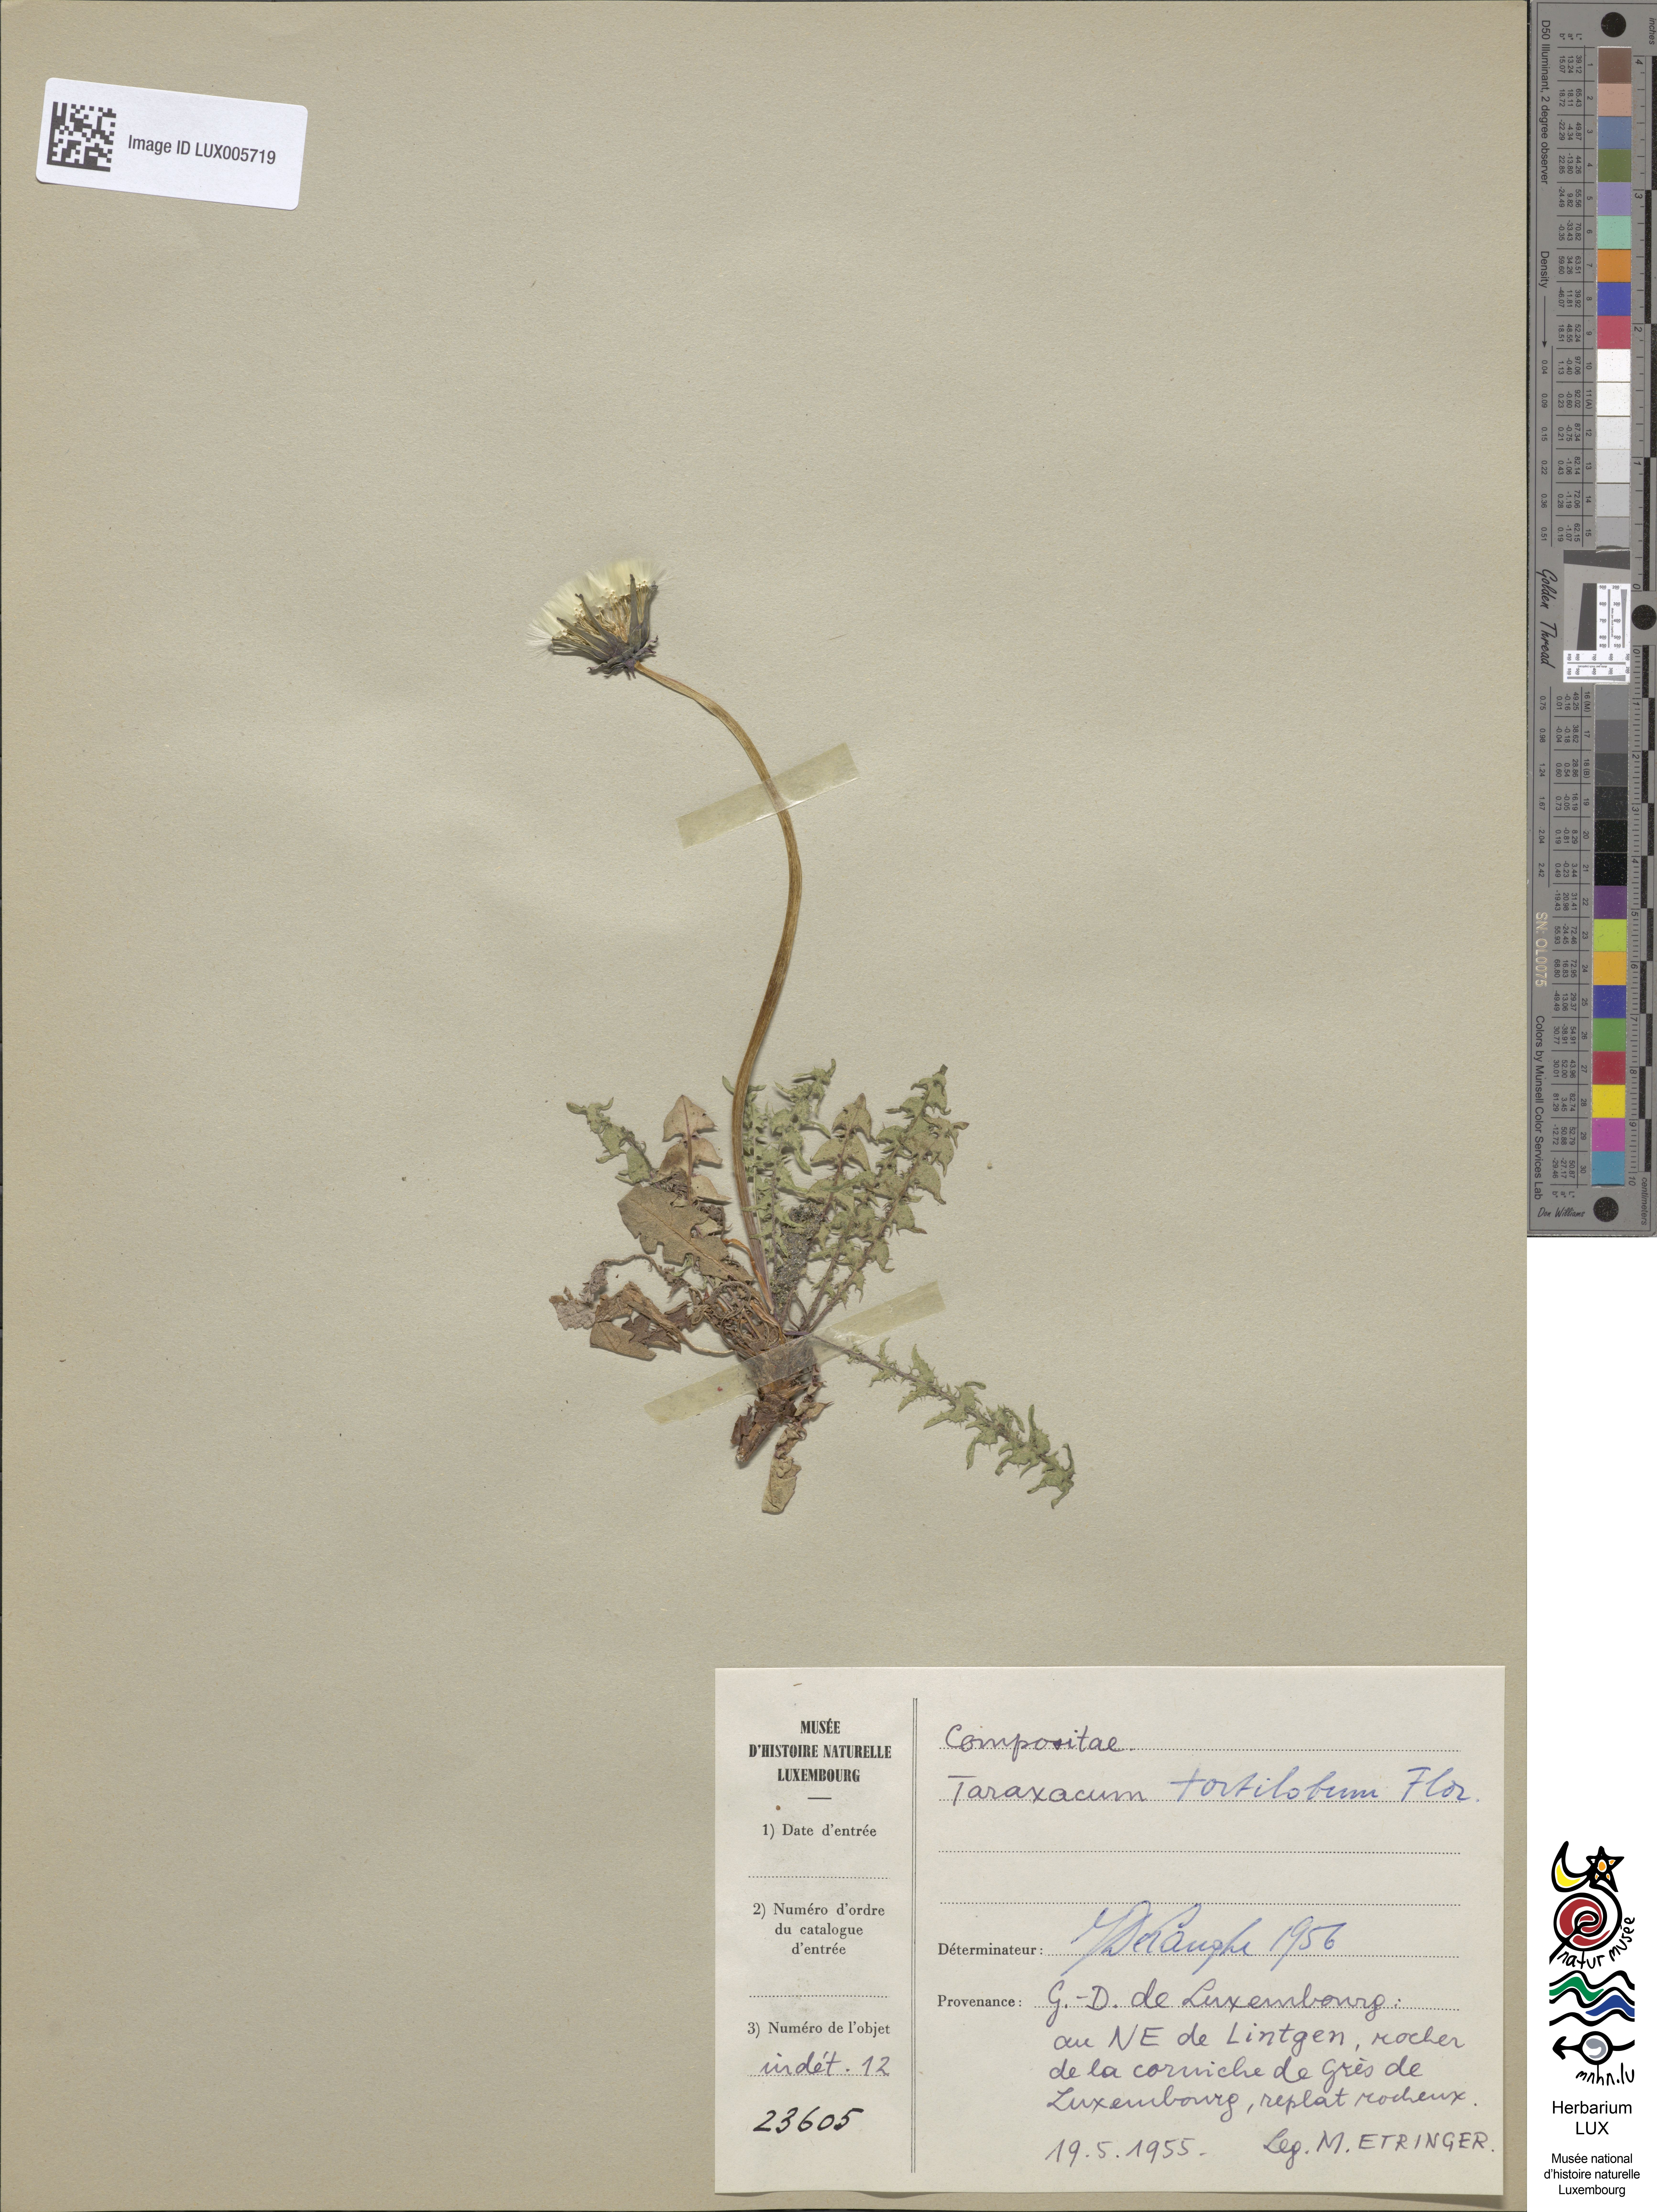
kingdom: Plantae
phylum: Tracheophyta
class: Magnoliopsida
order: Asterales
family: Asteraceae
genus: Taraxacum
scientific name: Taraxacum tortilobum
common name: Twisted-lobed dandelion
